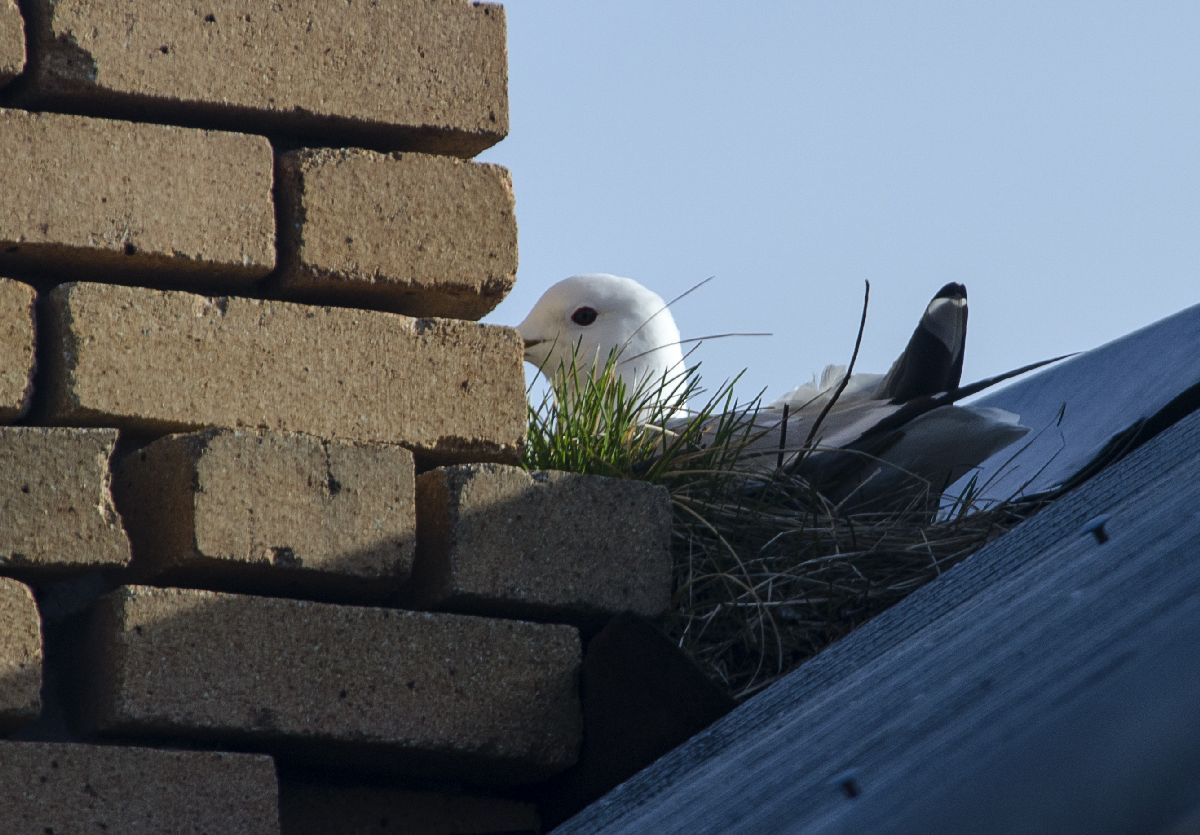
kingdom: Animalia
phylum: Chordata
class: Aves
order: Charadriiformes
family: Laridae
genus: Larus
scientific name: Larus canus
